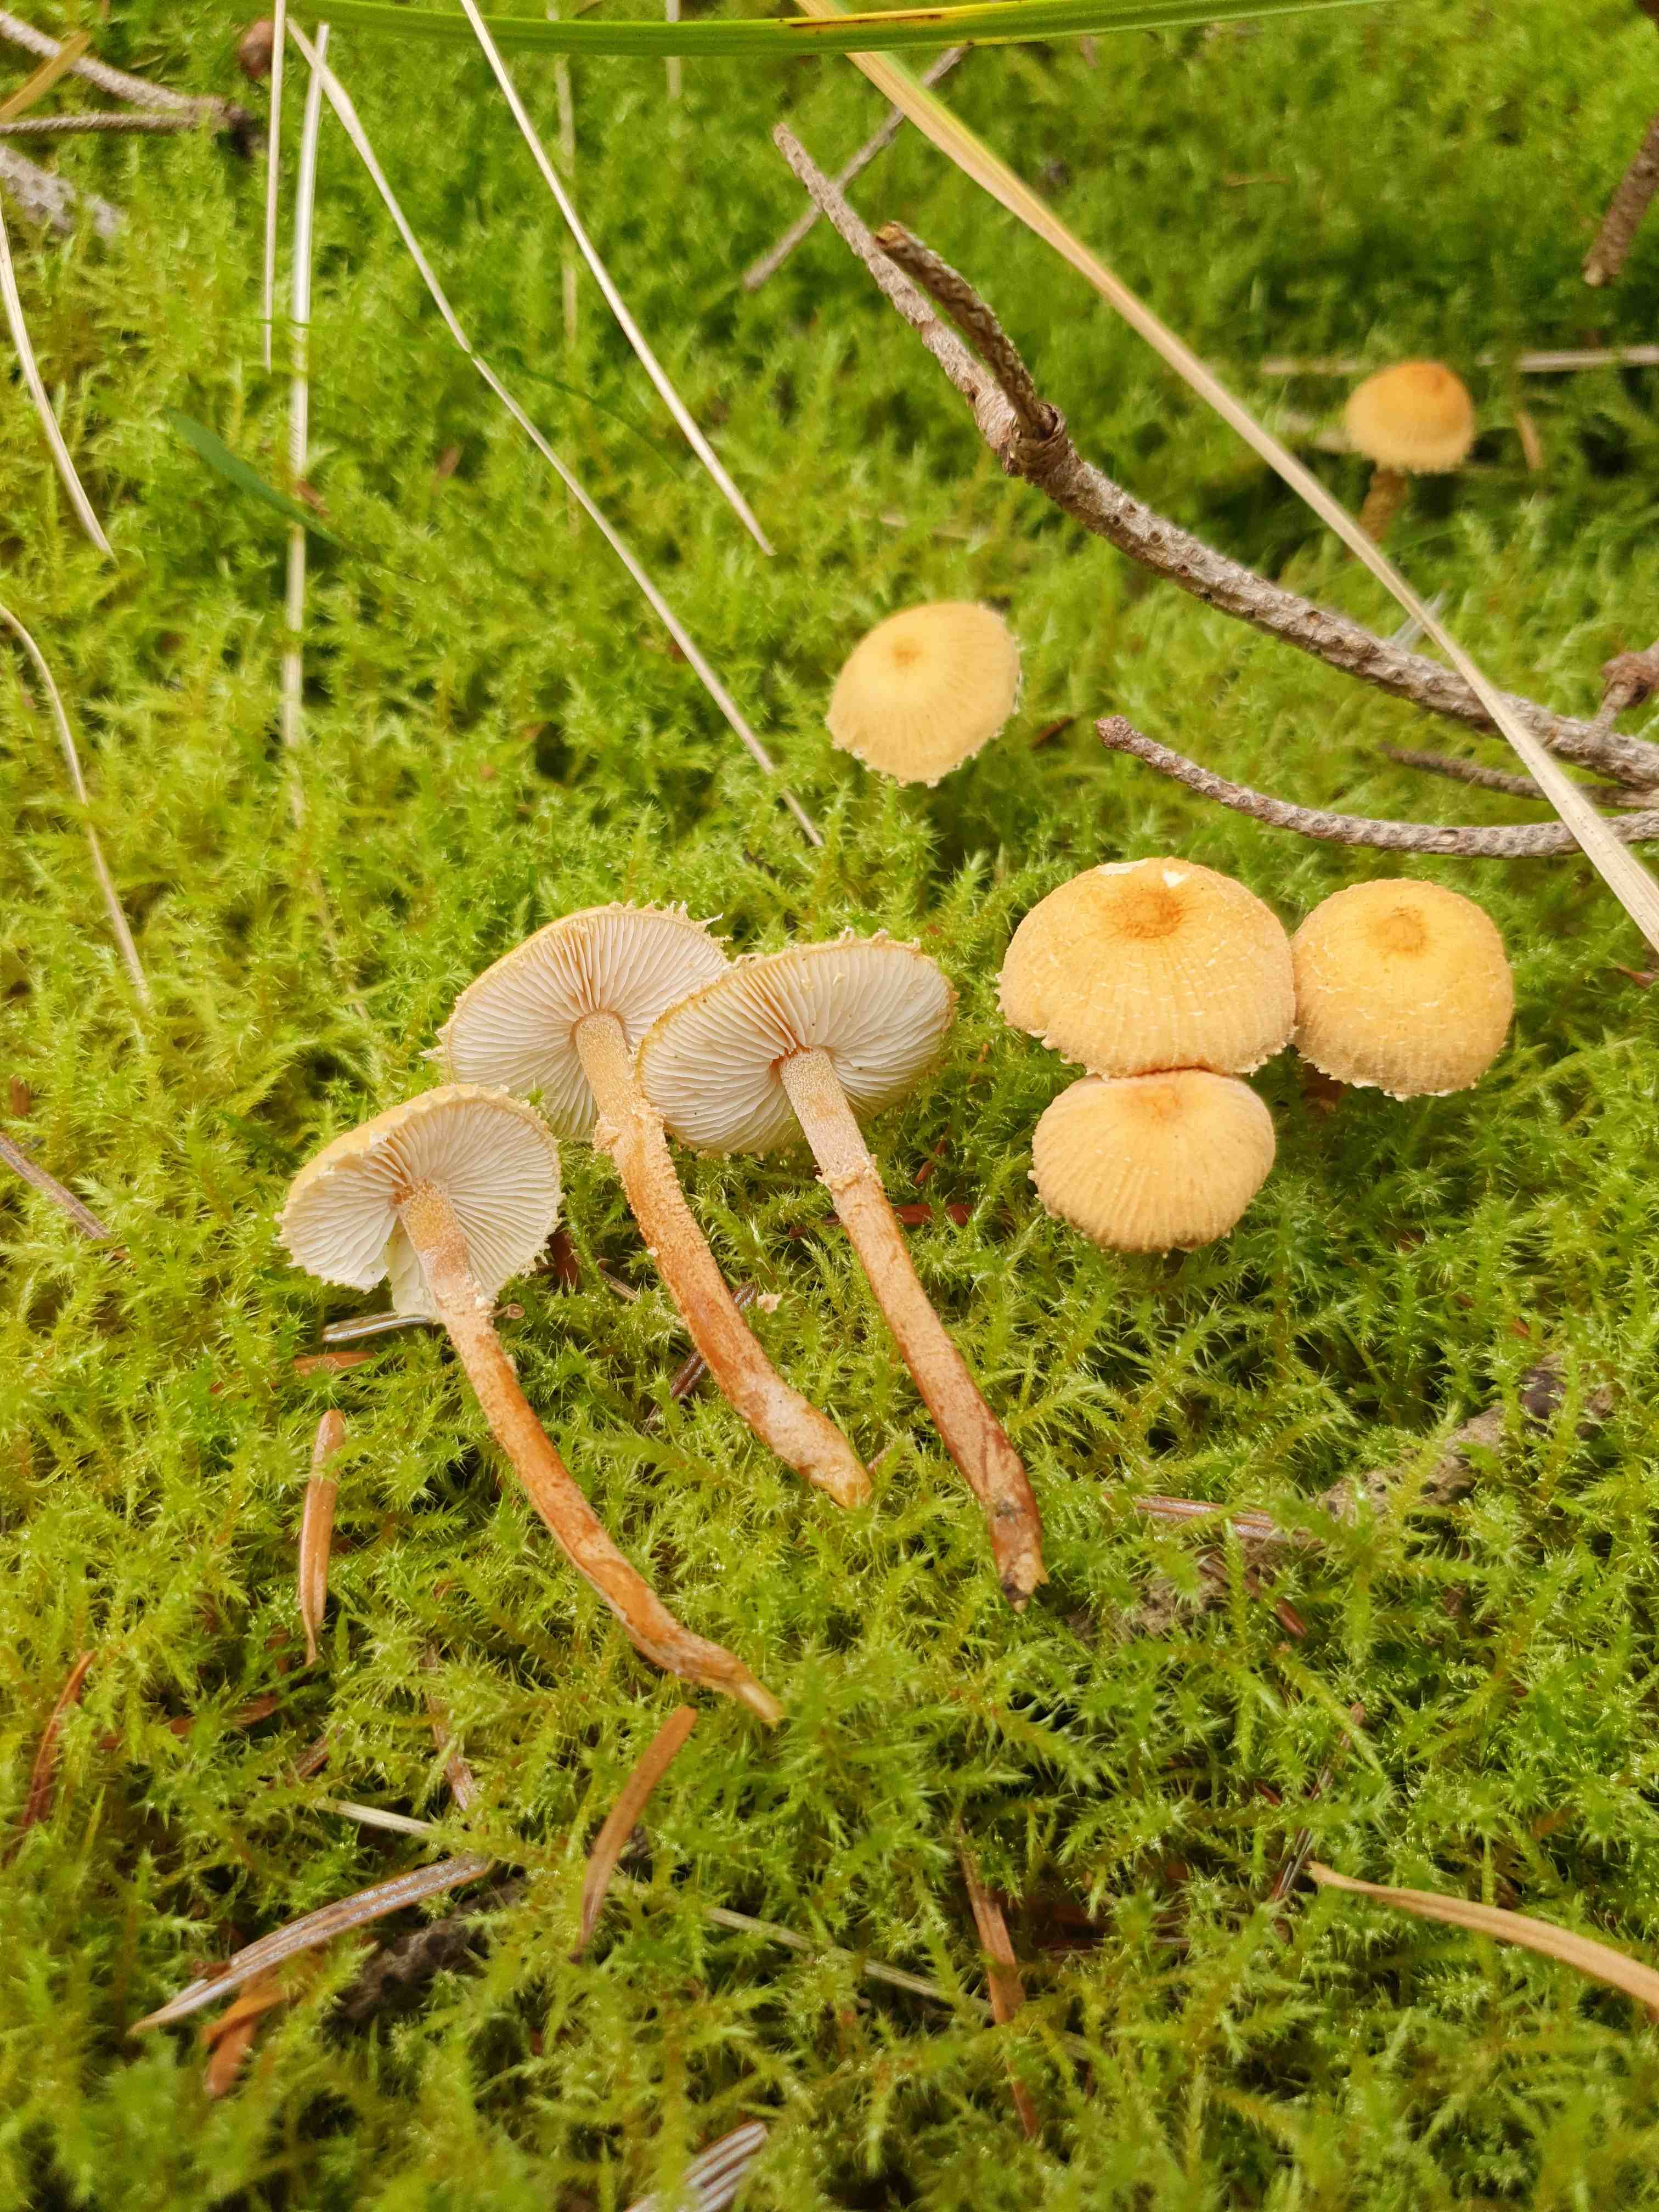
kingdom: Fungi
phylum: Basidiomycota
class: Agaricomycetes
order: Agaricales
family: Tricholomataceae
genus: Cystoderma
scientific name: Cystoderma amianthinum
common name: okkergul grynhat
